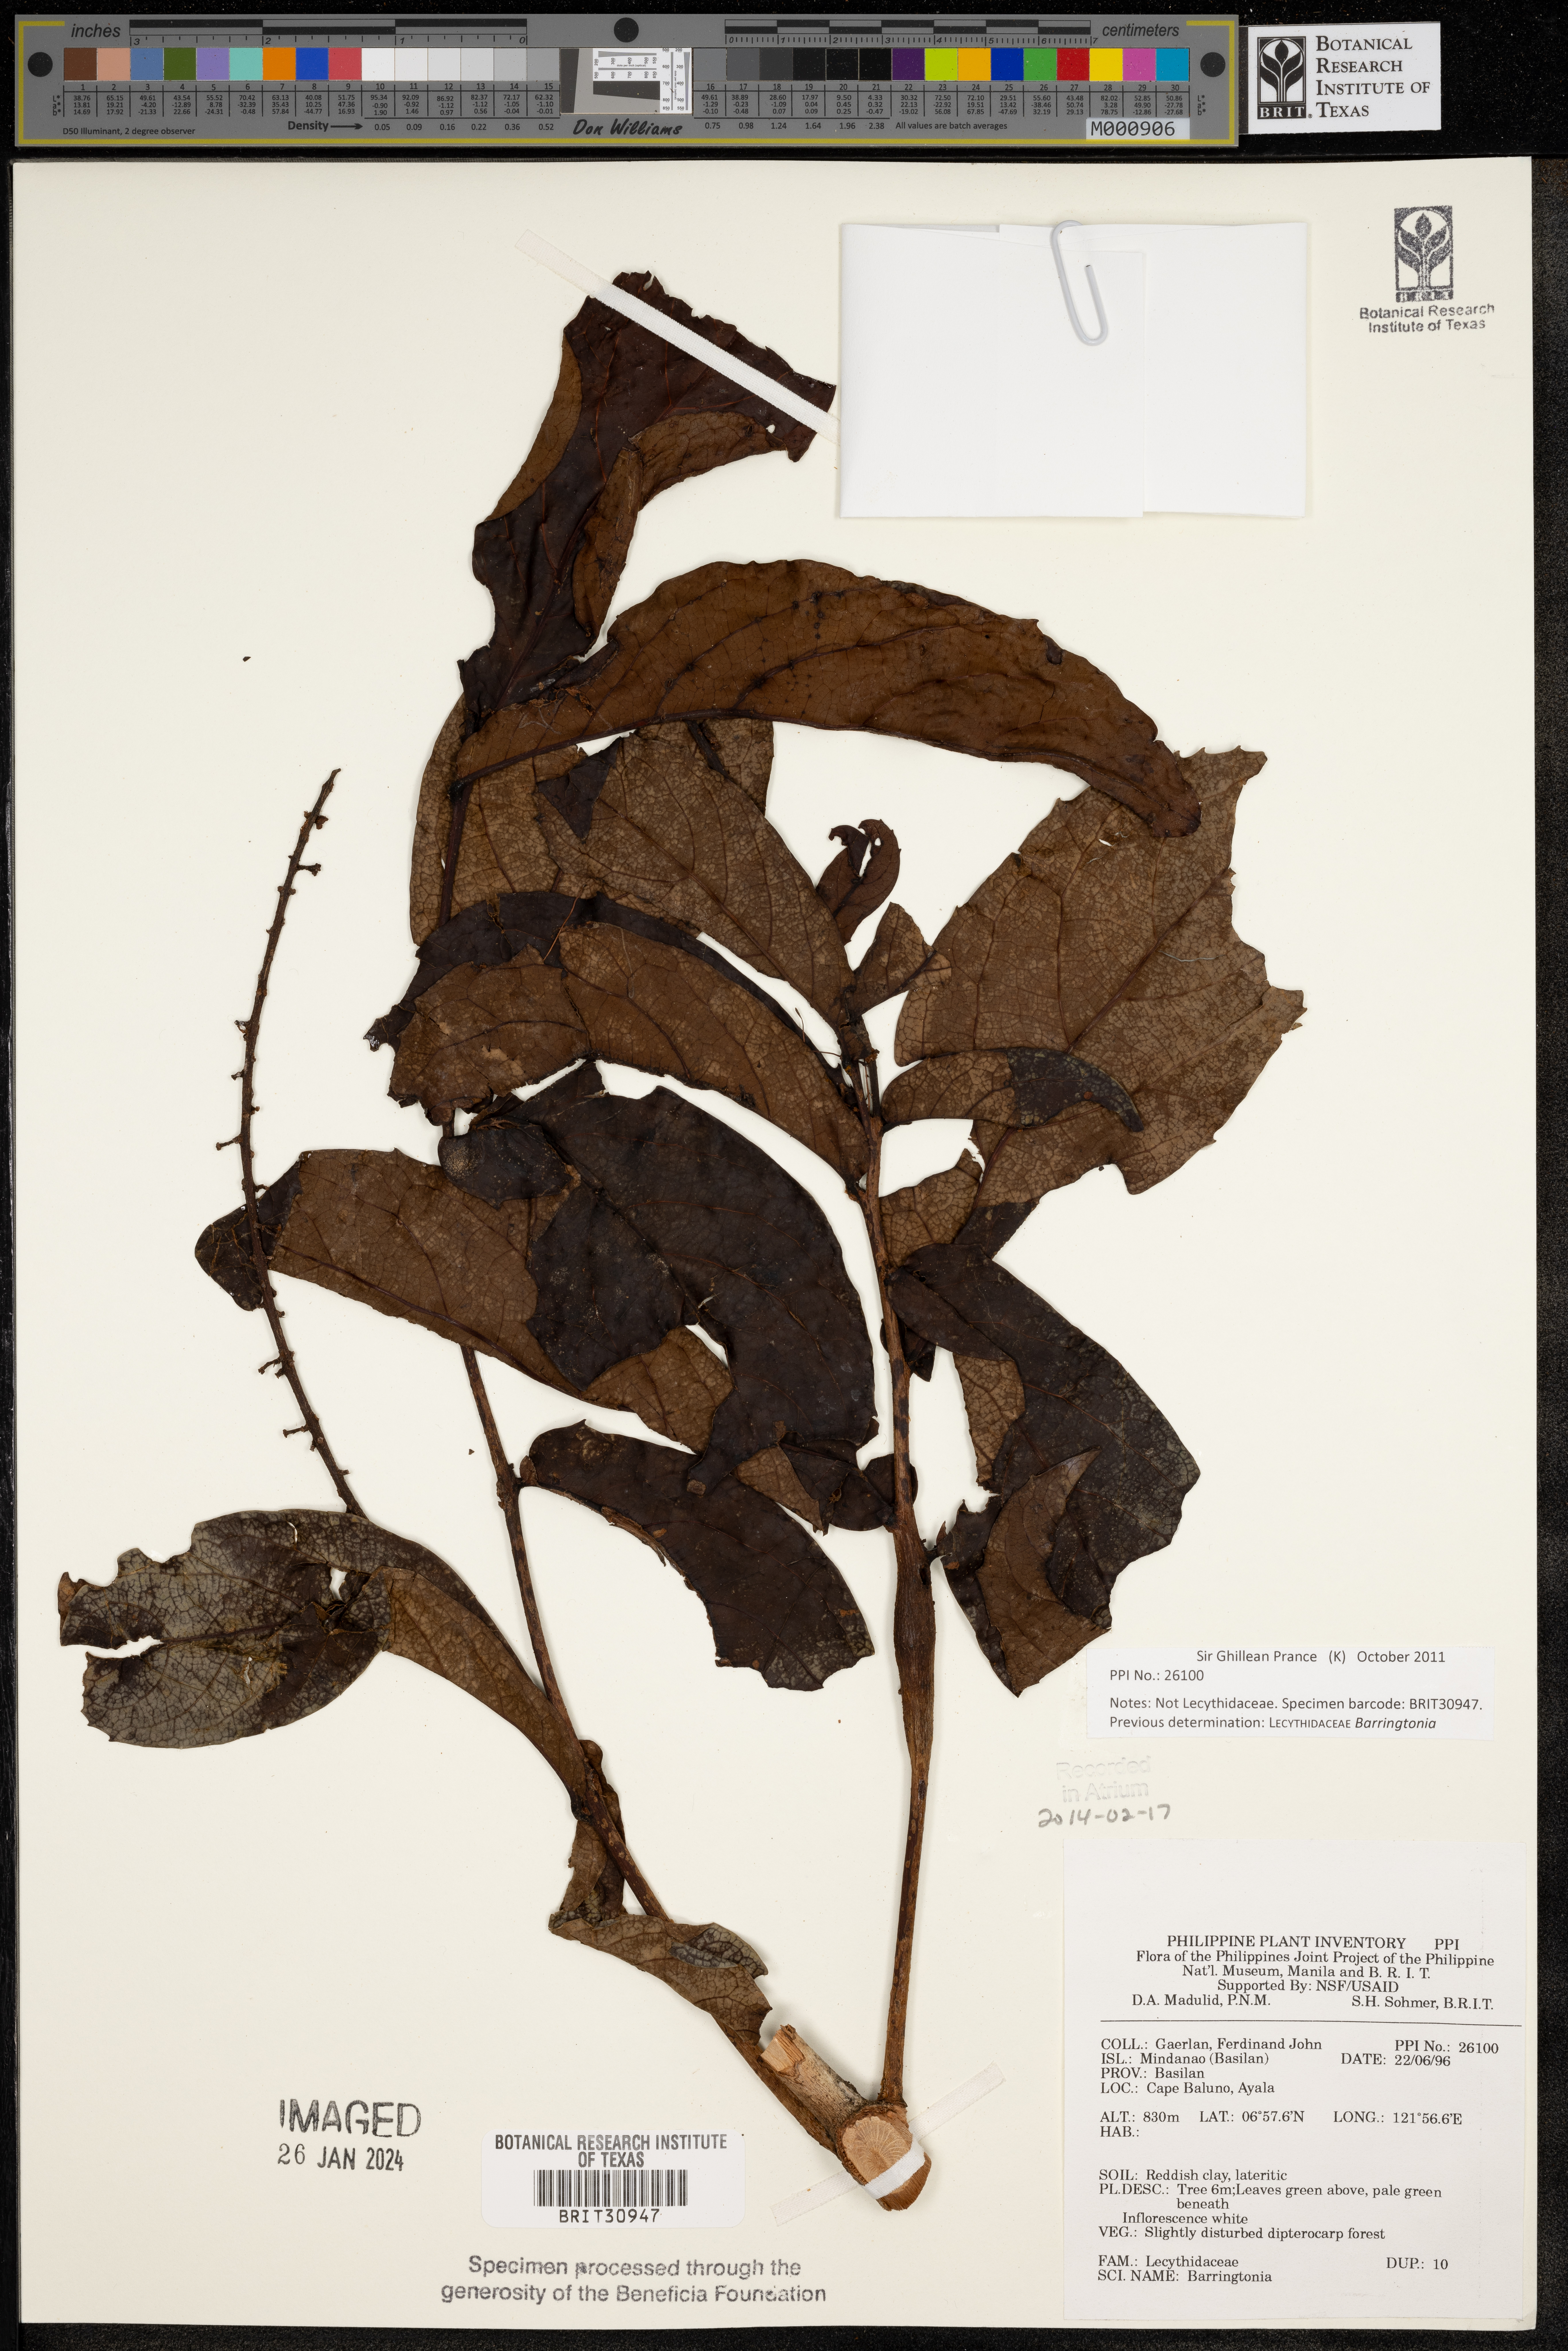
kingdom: Plantae
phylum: Tracheophyta
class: Magnoliopsida
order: Ericales
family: Lecythidaceae
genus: Barringtonia
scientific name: Barringtonia
